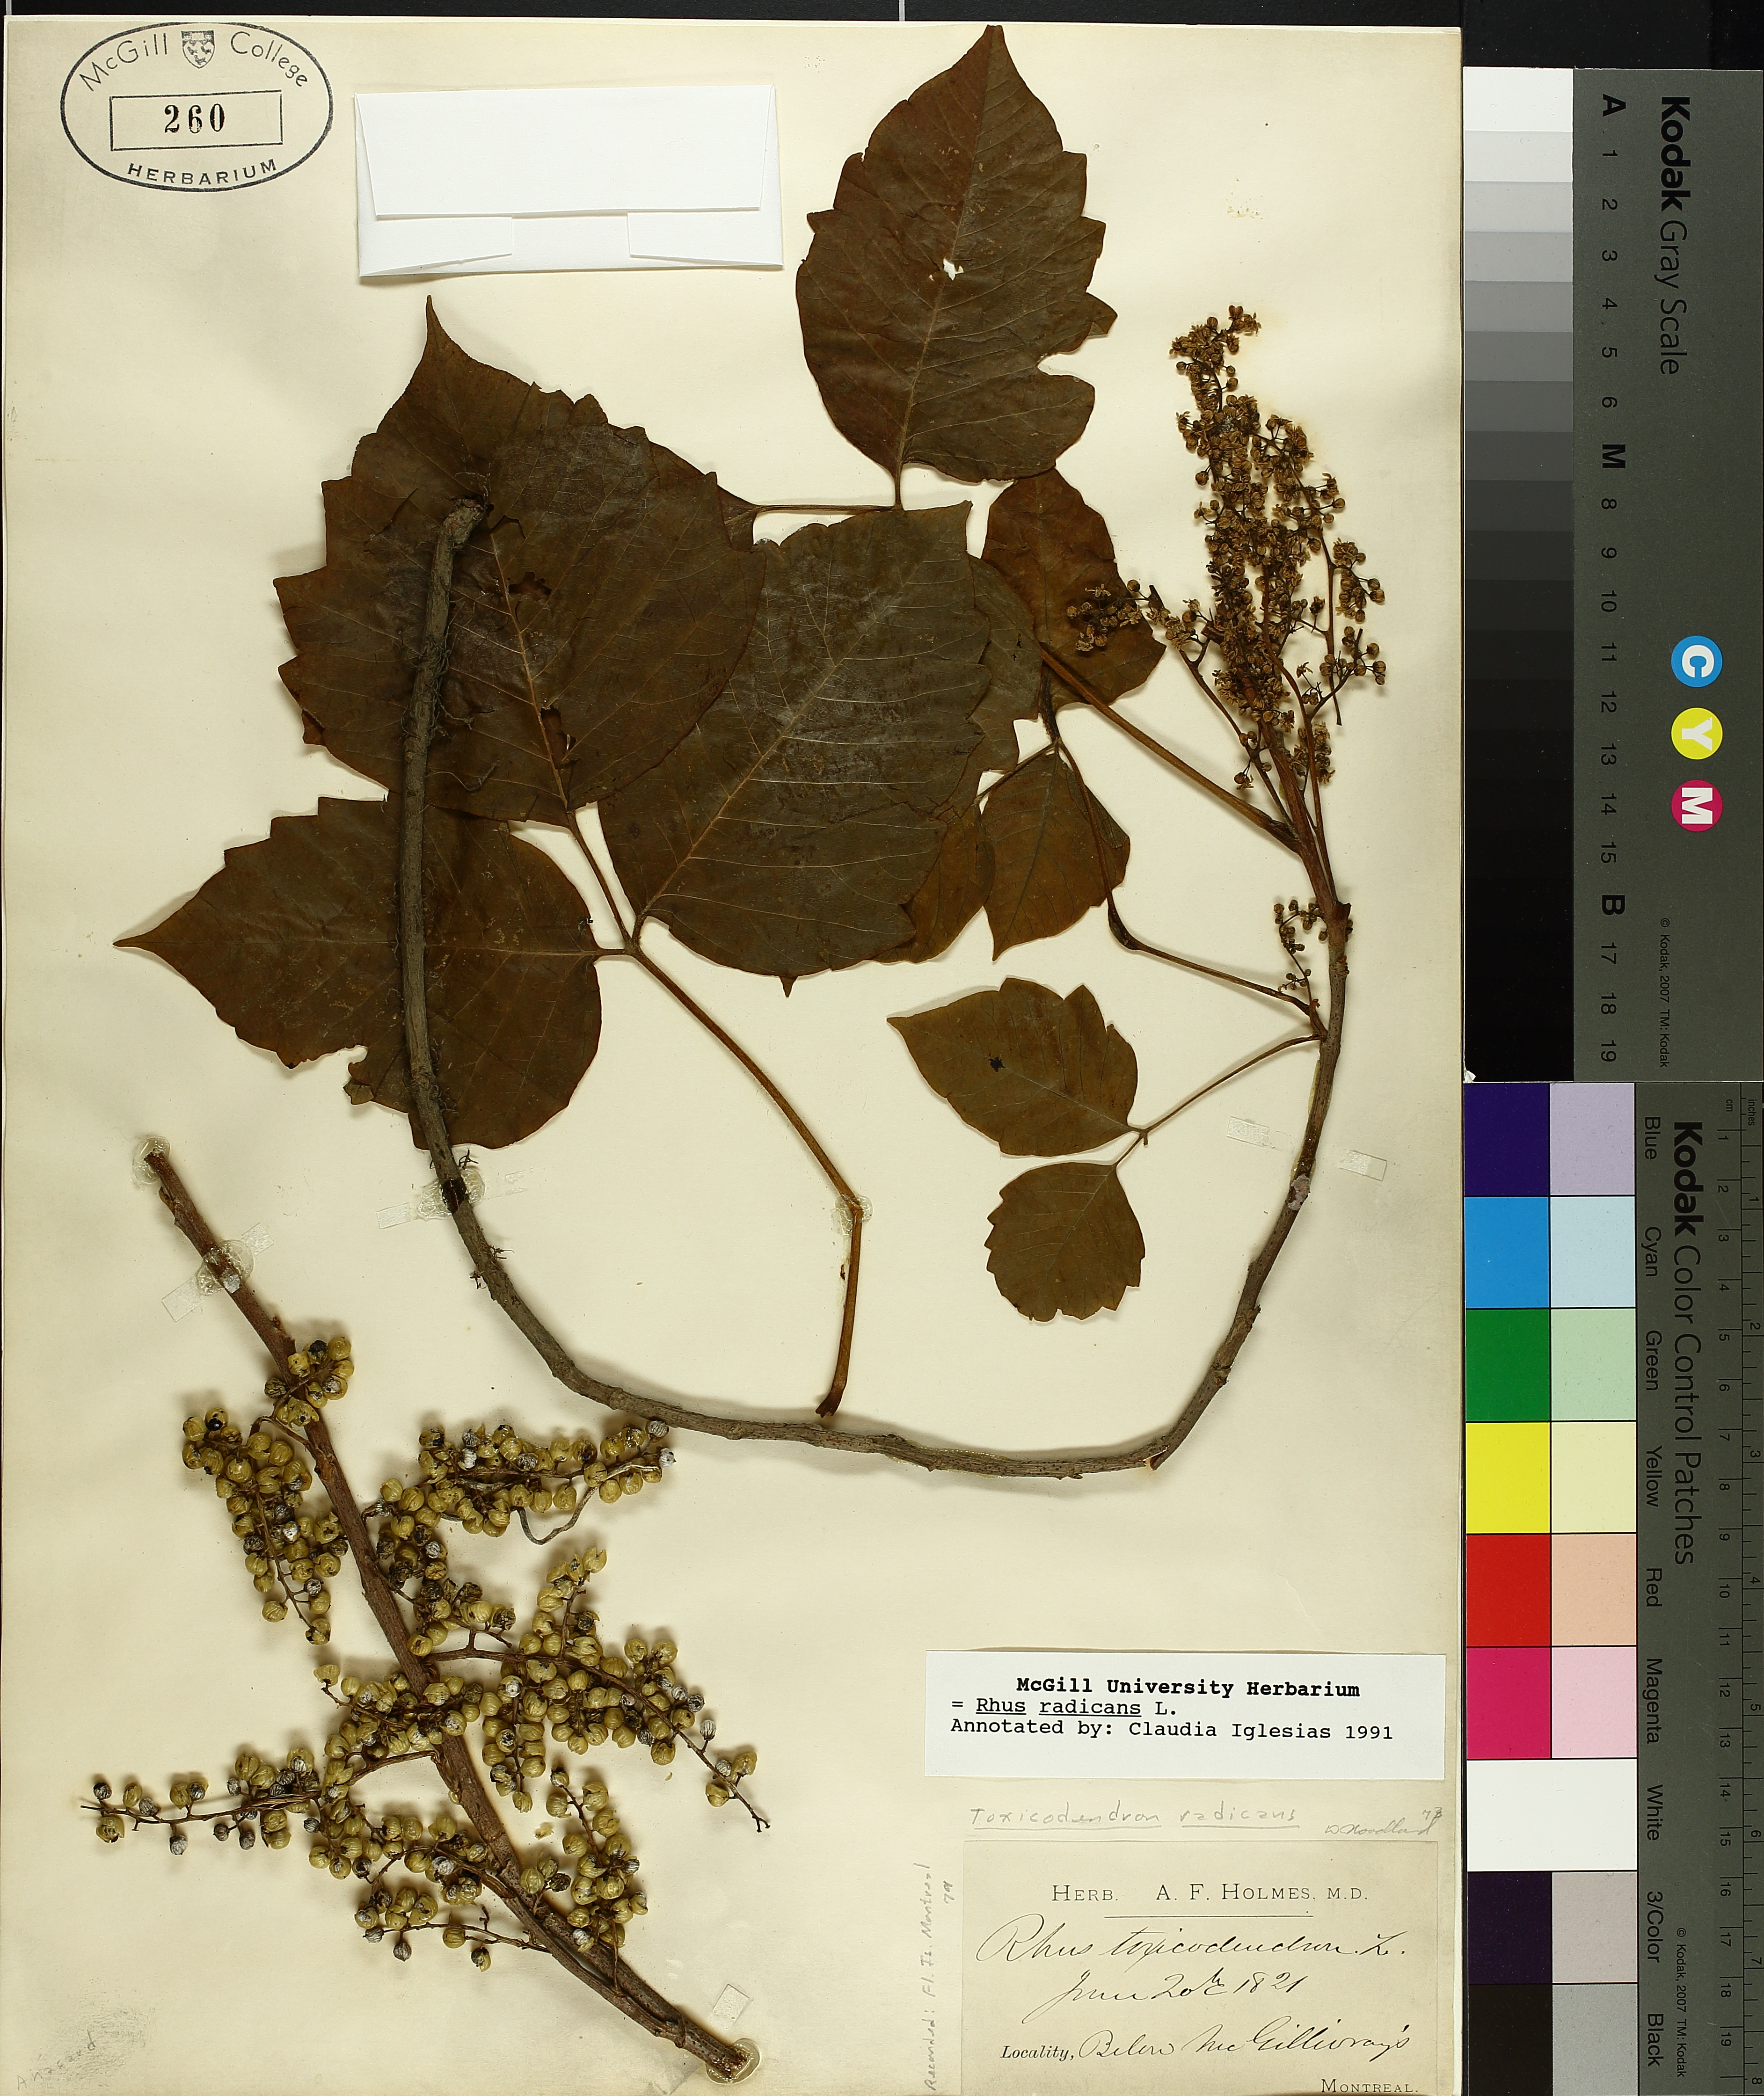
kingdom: Plantae
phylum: Tracheophyta
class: Magnoliopsida
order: Sapindales
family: Anacardiaceae
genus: Toxicodendron
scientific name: Toxicodendron radicans
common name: Poison ivy
